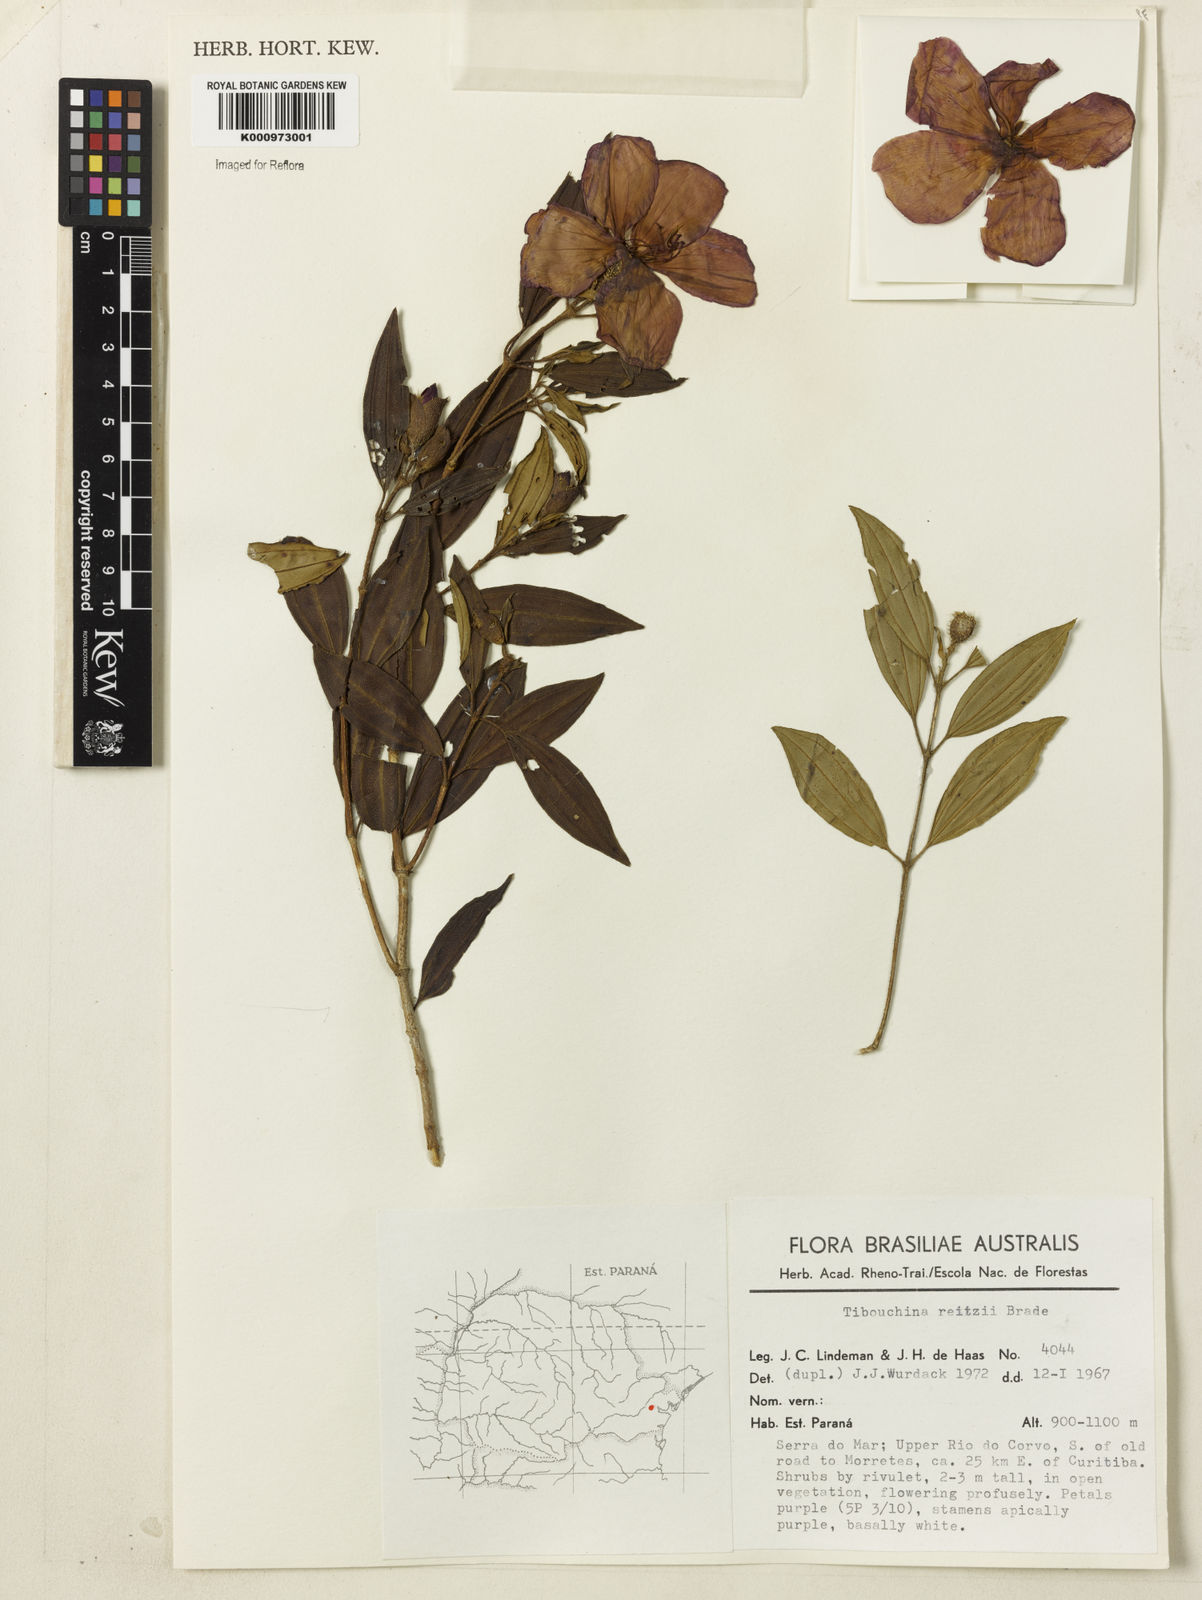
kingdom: Plantae
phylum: Tracheophyta
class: Magnoliopsida
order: Myrtales
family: Melastomataceae
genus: Pleroma
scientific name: Pleroma reitzii
